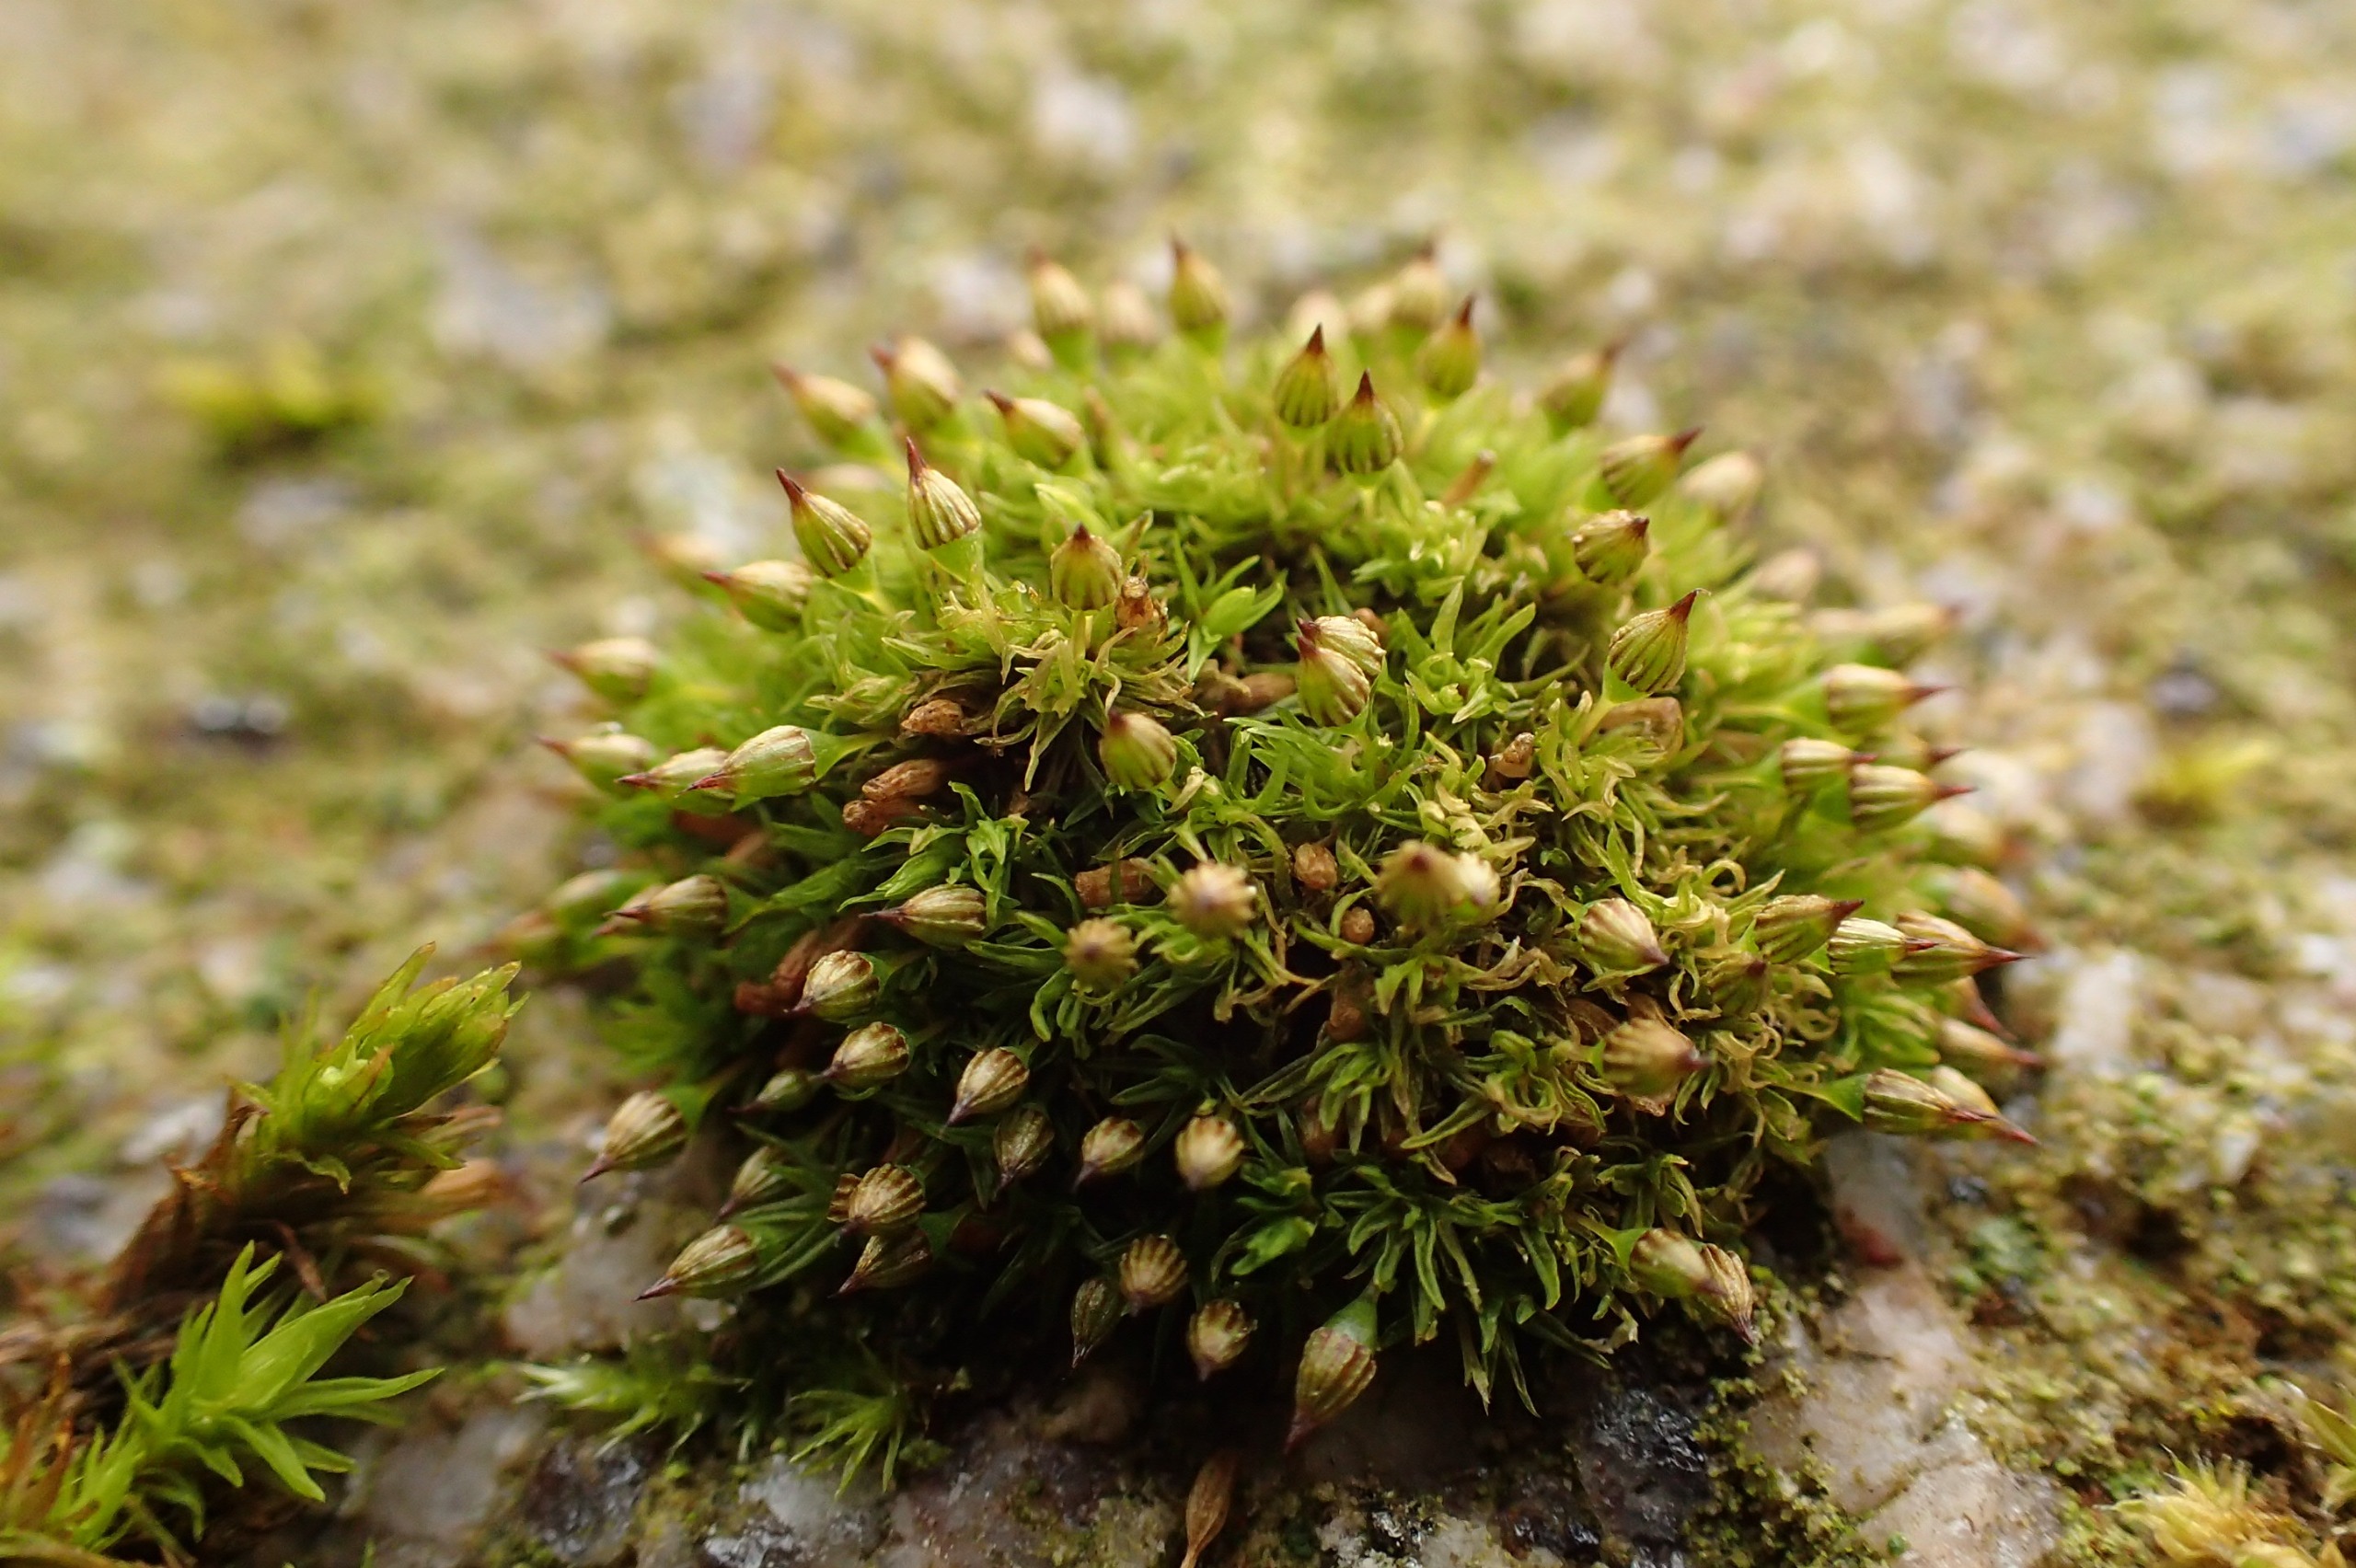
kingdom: Plantae
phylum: Bryophyta
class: Bryopsida
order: Orthotrichales
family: Orthotrichaceae
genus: Orthotrichum
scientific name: Orthotrichum pulchellum
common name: Smuk furehætte
